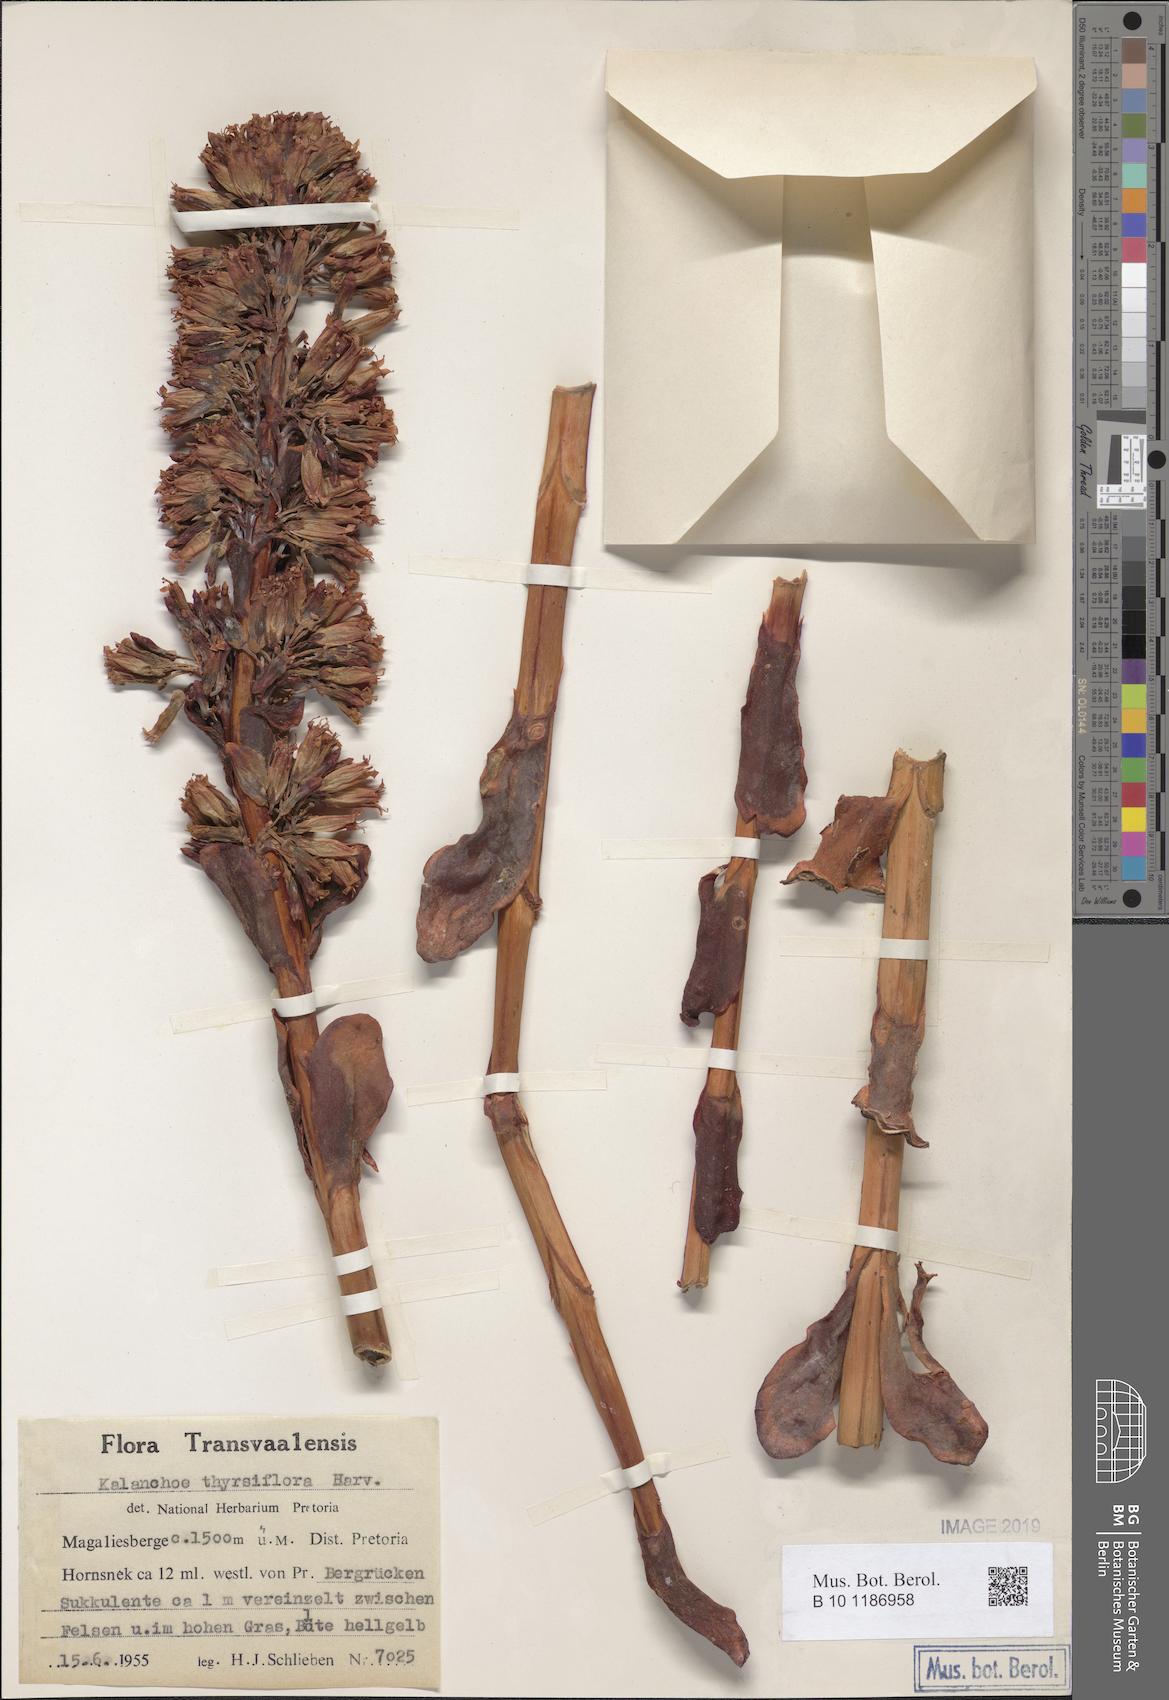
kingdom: Plantae
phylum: Tracheophyta
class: Magnoliopsida
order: Saxifragales
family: Crassulaceae
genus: Kalanchoe
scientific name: Kalanchoe thyrsiflora
